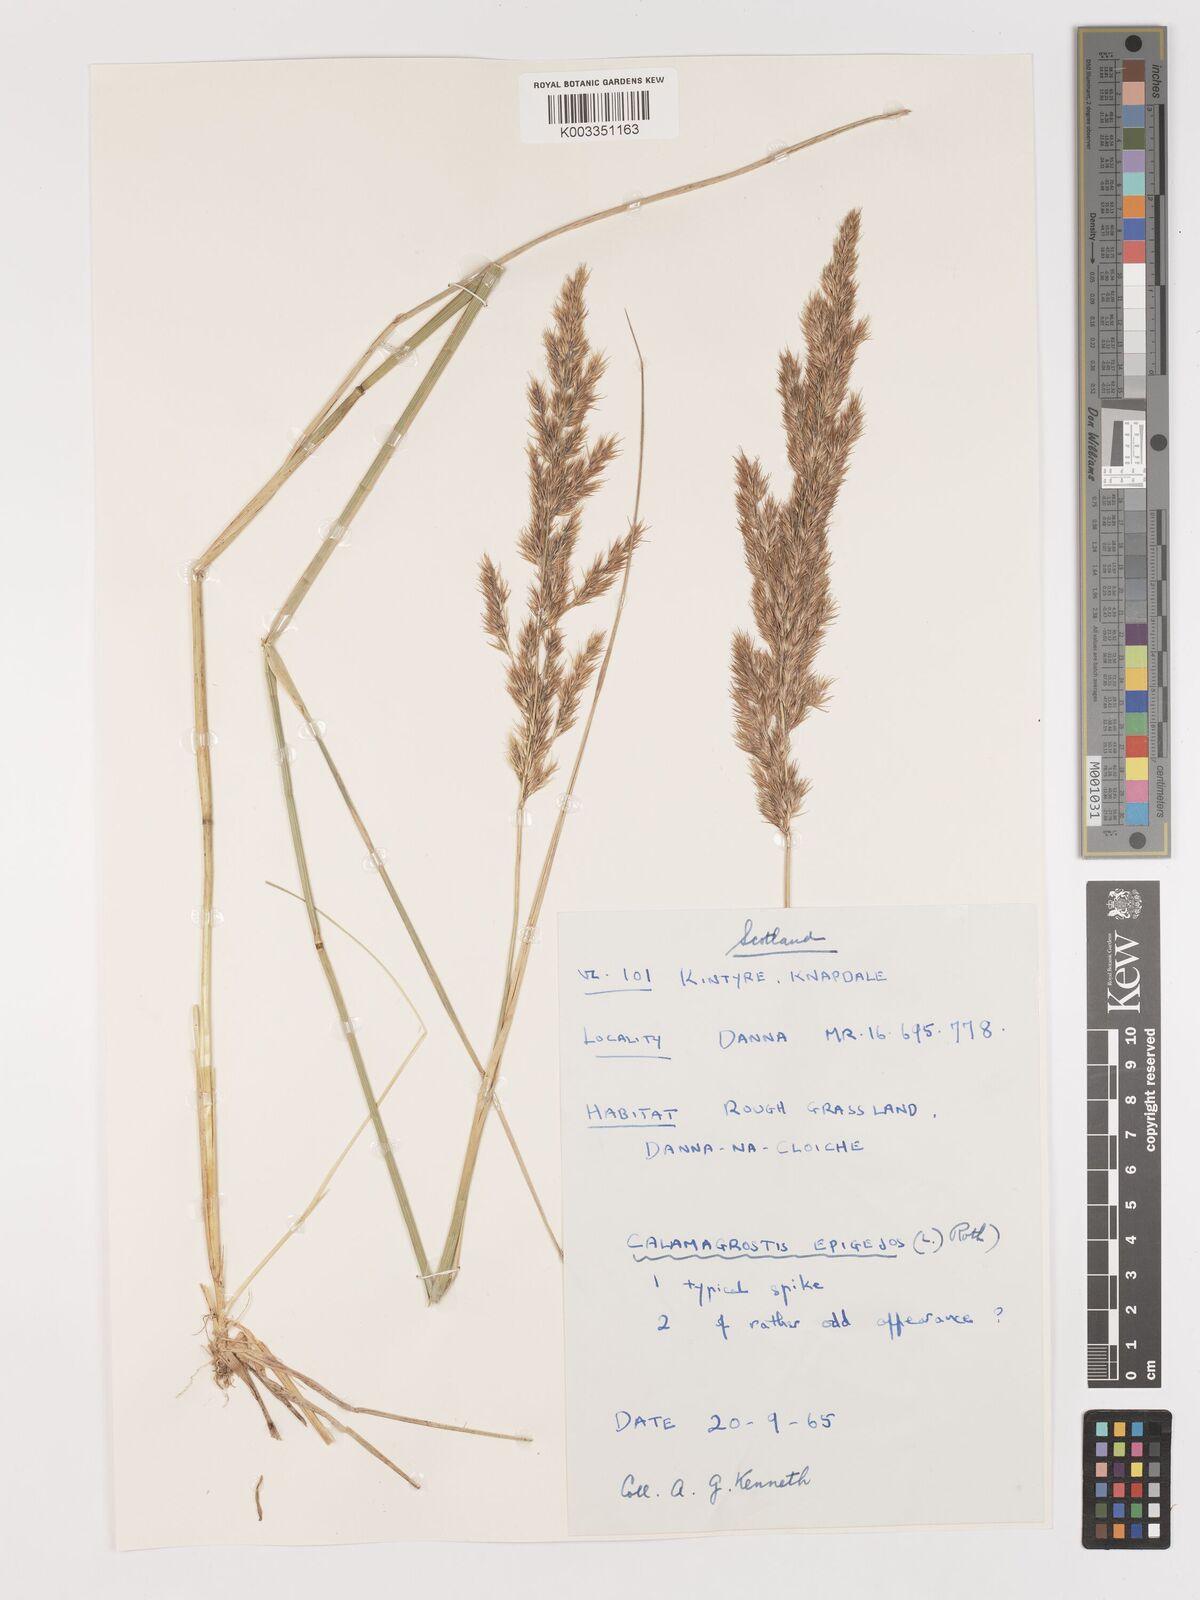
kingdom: Plantae
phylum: Tracheophyta
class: Liliopsida
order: Poales
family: Poaceae
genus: Calamagrostis
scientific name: Calamagrostis
